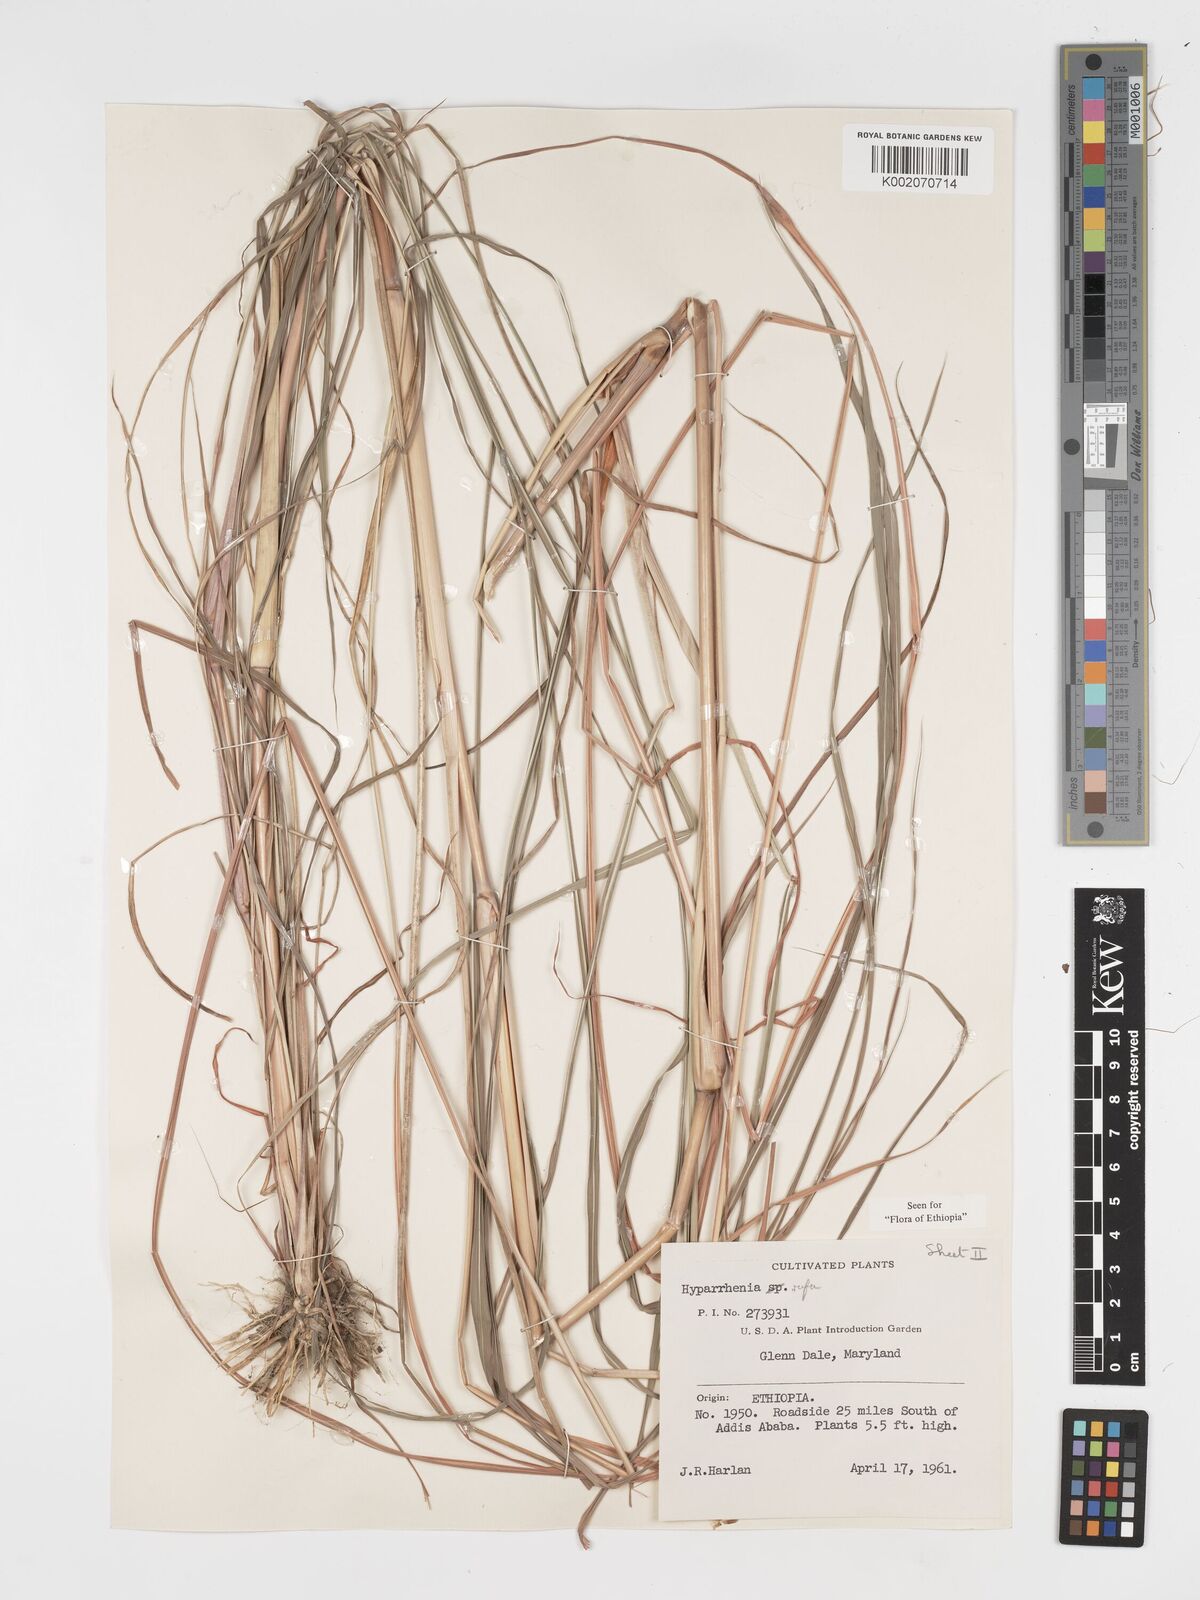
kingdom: Plantae
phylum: Tracheophyta
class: Liliopsida
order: Poales
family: Poaceae
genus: Hyparrhenia
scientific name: Hyparrhenia rufa
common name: Jaraguagrass
